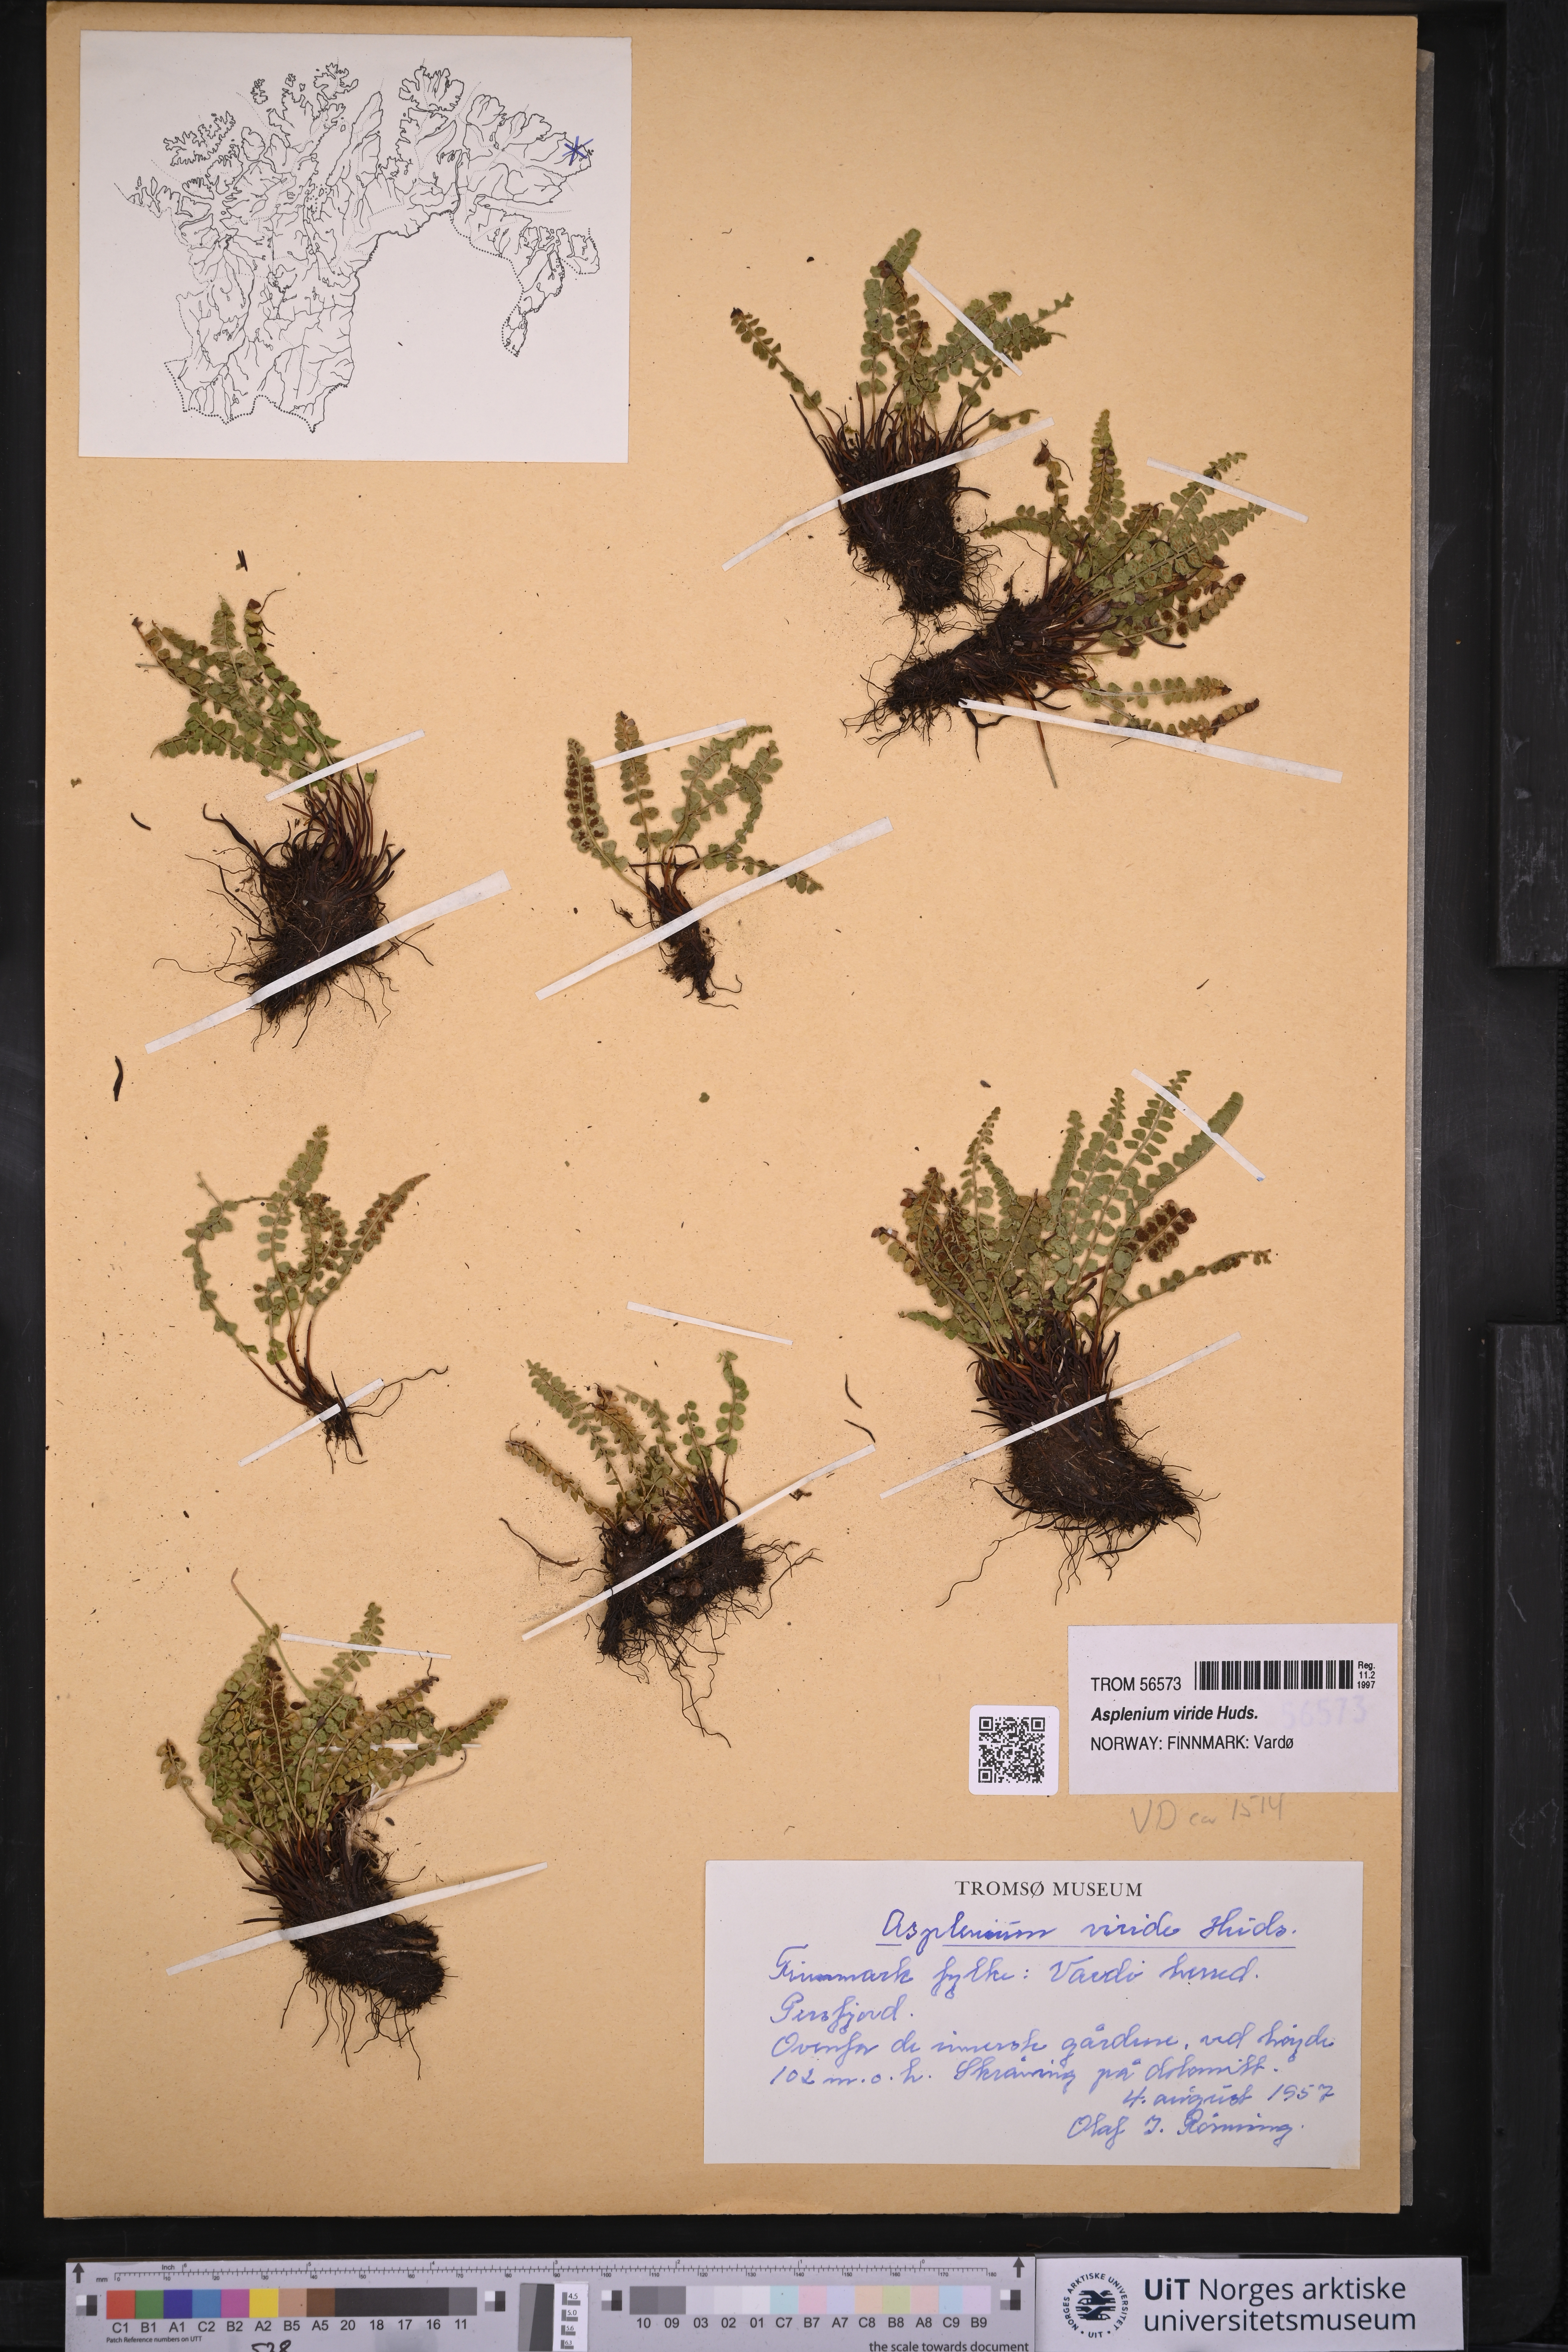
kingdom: Plantae
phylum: Tracheophyta
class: Polypodiopsida
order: Polypodiales
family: Aspleniaceae
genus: Asplenium
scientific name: Asplenium viride
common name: Green spleenwort
